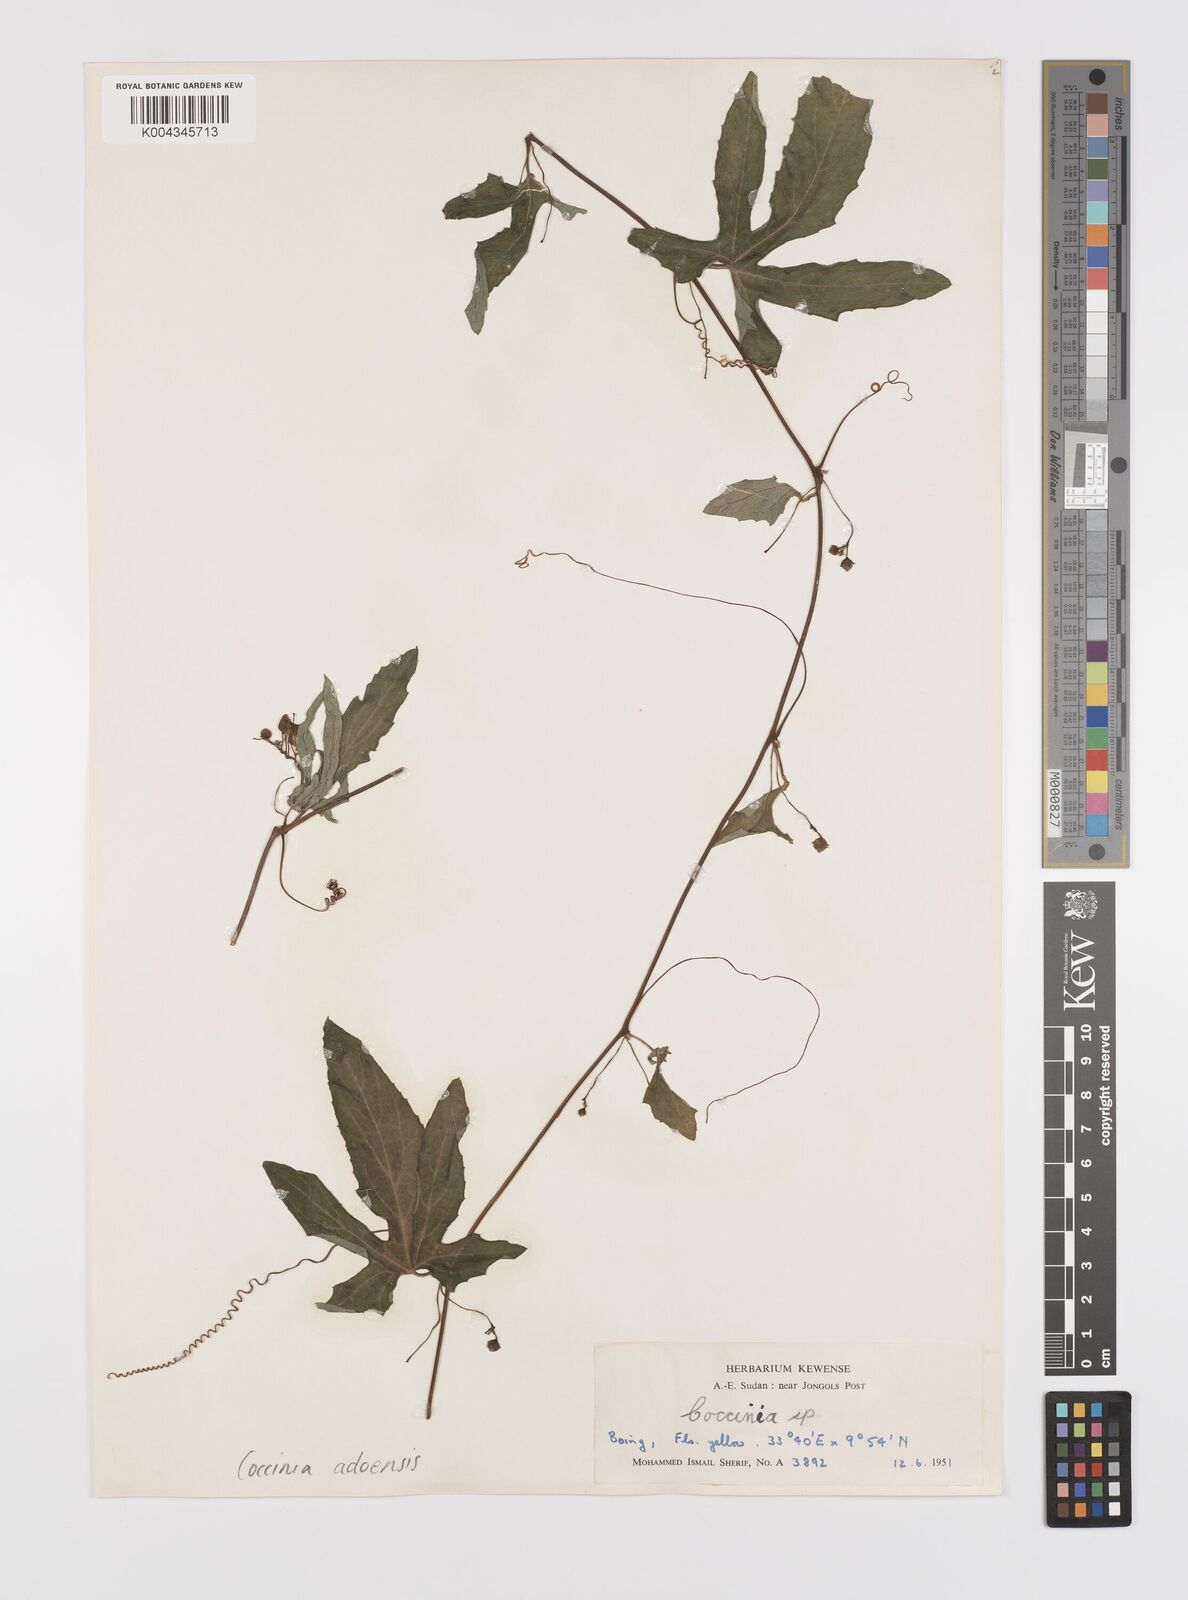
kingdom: Plantae
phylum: Tracheophyta
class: Magnoliopsida
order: Cucurbitales
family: Cucurbitaceae
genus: Coccinia
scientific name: Coccinia adoensis
